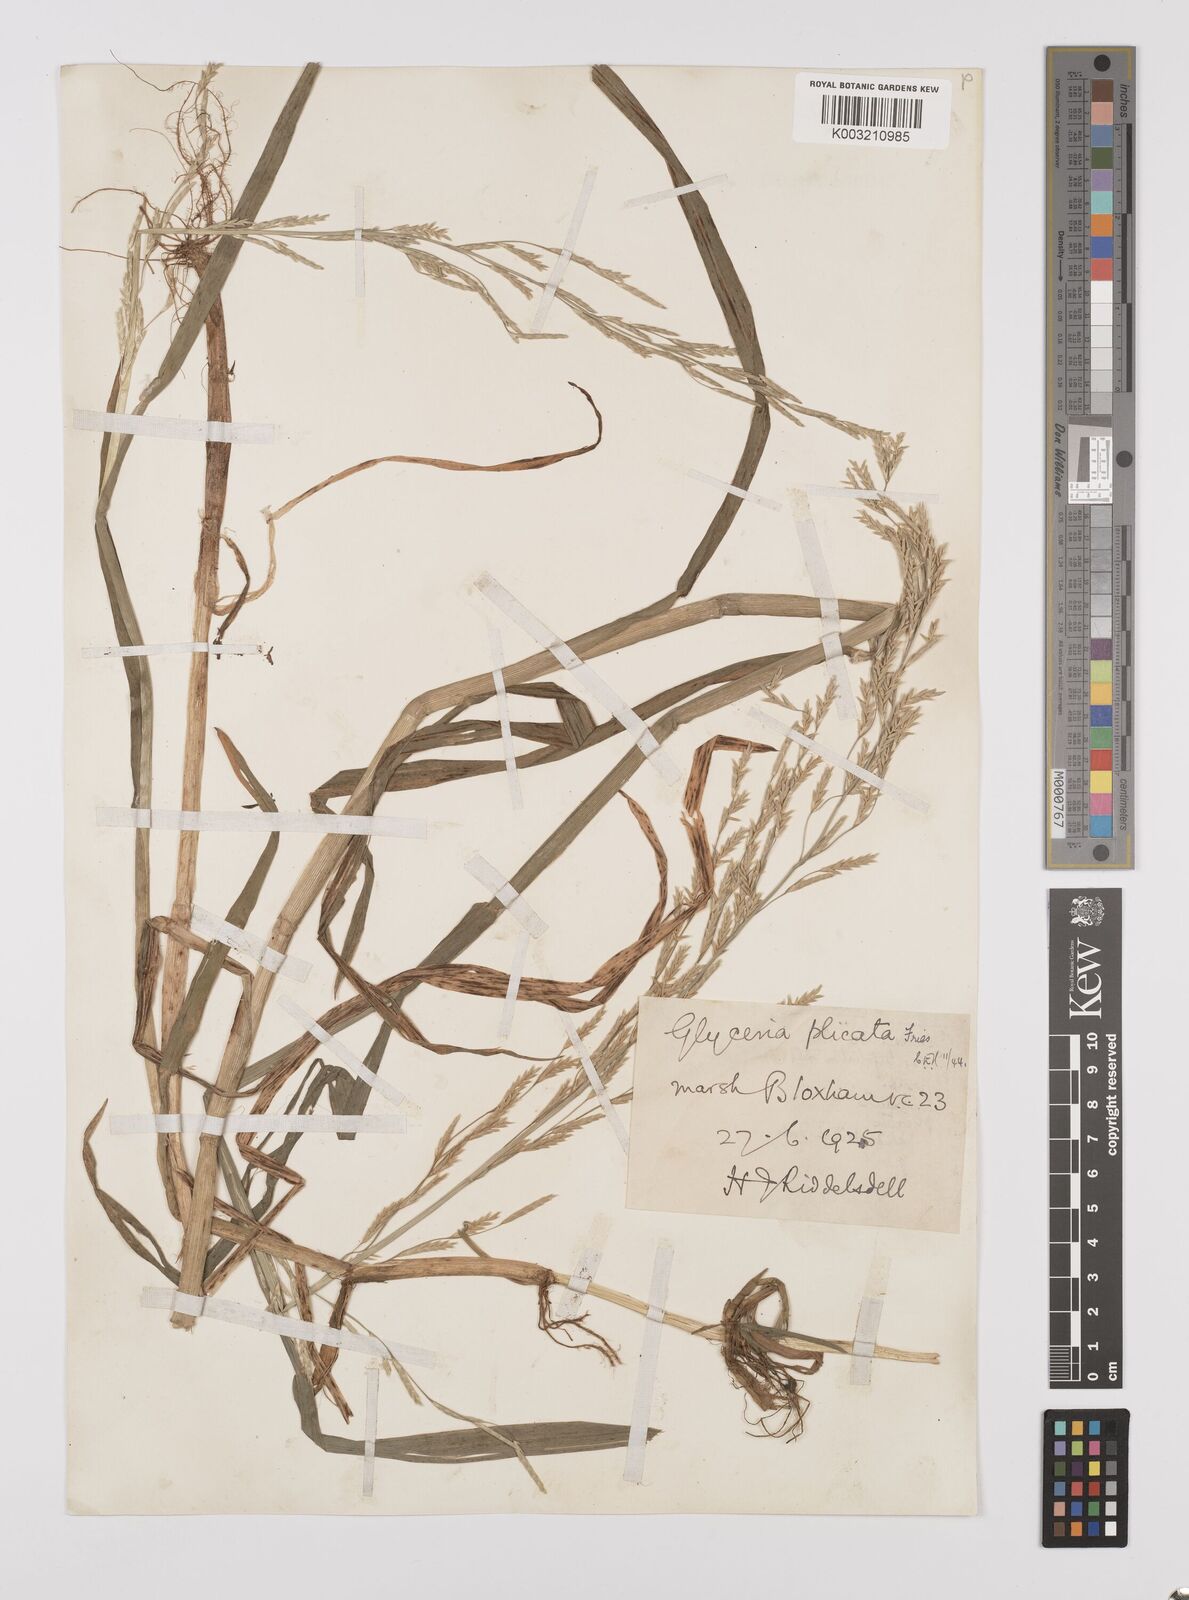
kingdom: Plantae
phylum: Tracheophyta
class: Liliopsida
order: Poales
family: Poaceae
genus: Glyceria
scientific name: Glyceria notata
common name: Plicate sweet-grass
